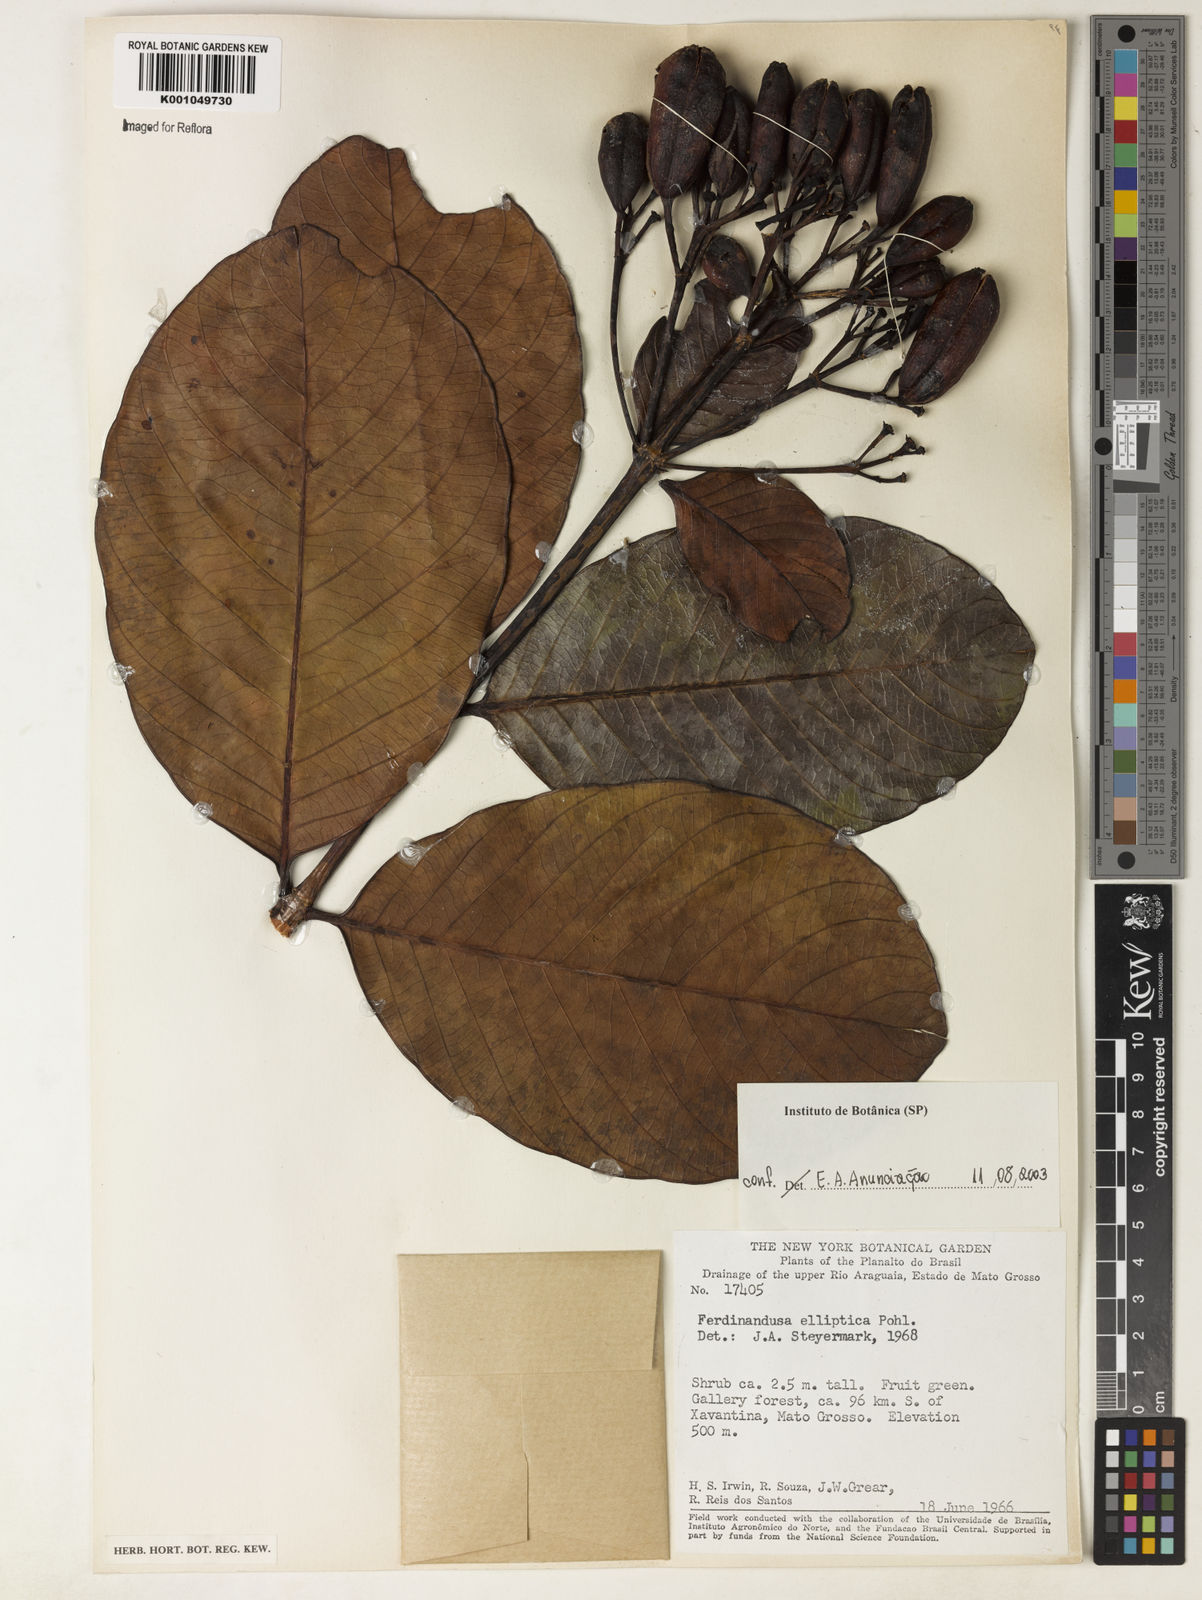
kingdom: Plantae
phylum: Tracheophyta
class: Magnoliopsida
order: Gentianales
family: Rubiaceae
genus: Ferdinandusa
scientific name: Ferdinandusa elliptica
